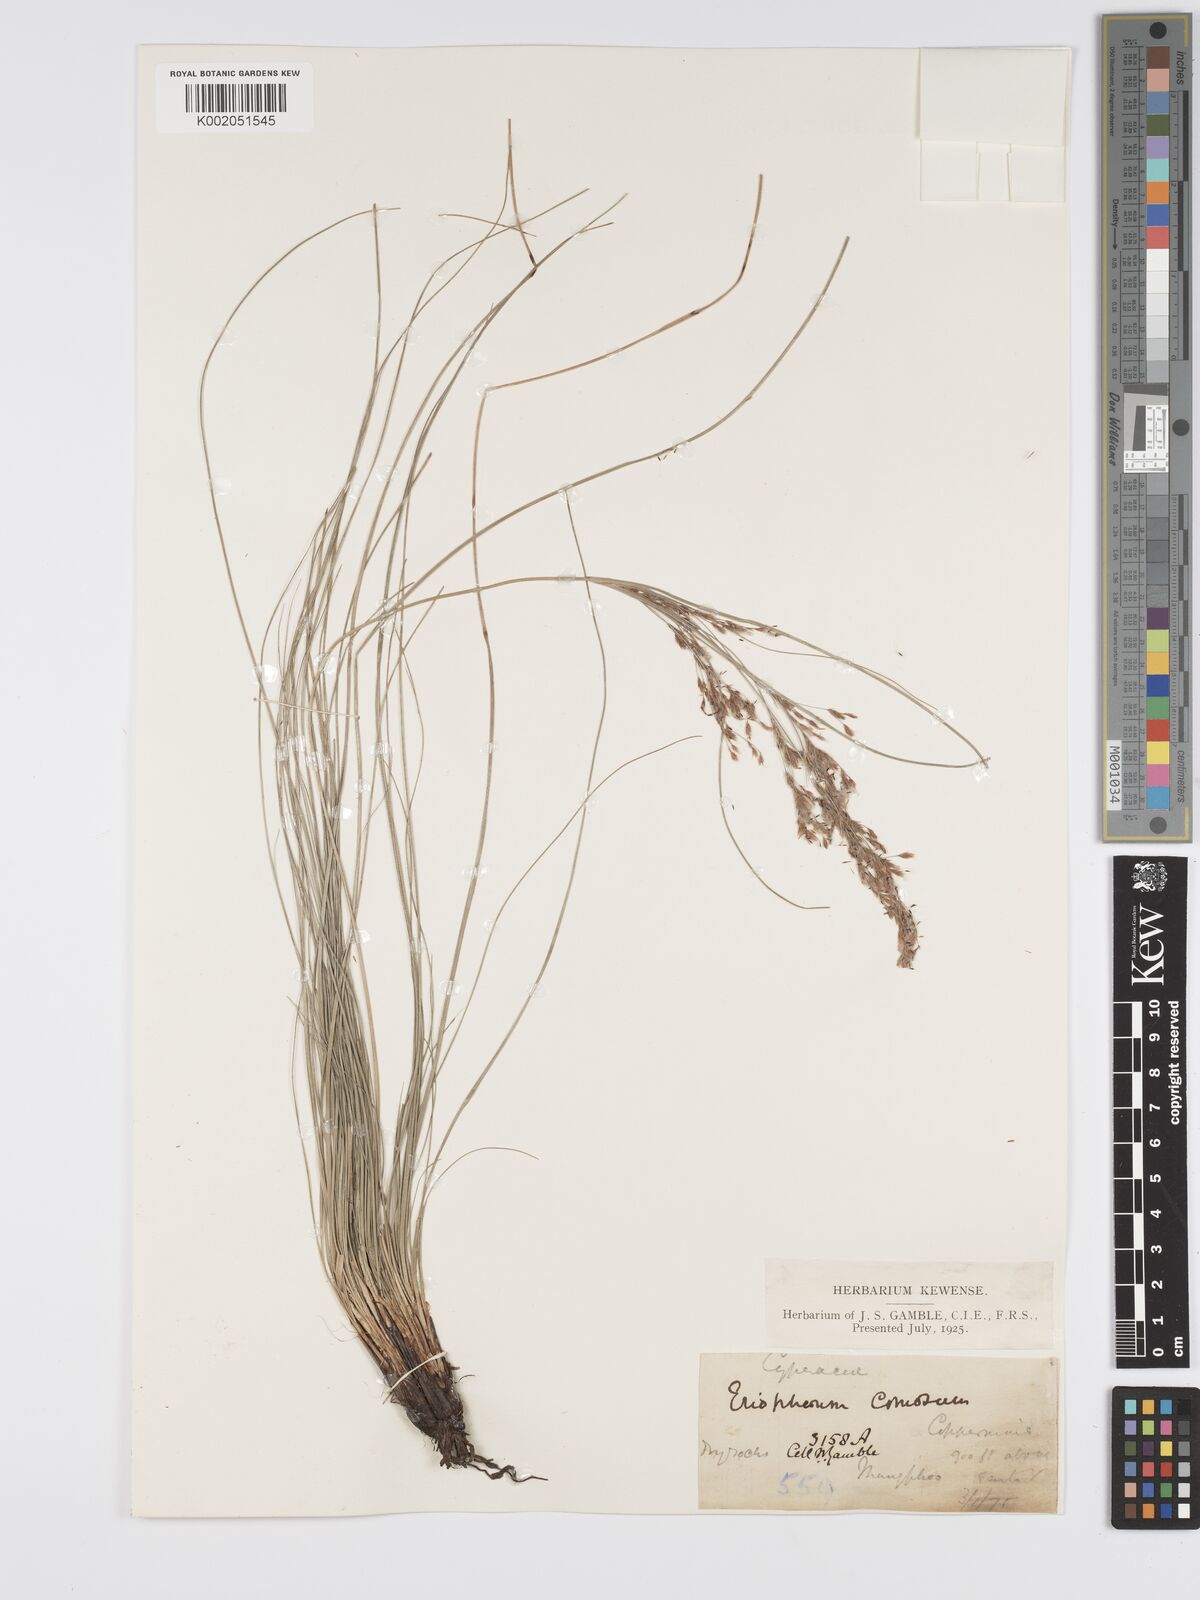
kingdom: Plantae
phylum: Tracheophyta
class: Liliopsida
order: Poales
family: Cyperaceae
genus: Erioscirpus
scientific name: Erioscirpus comosus
